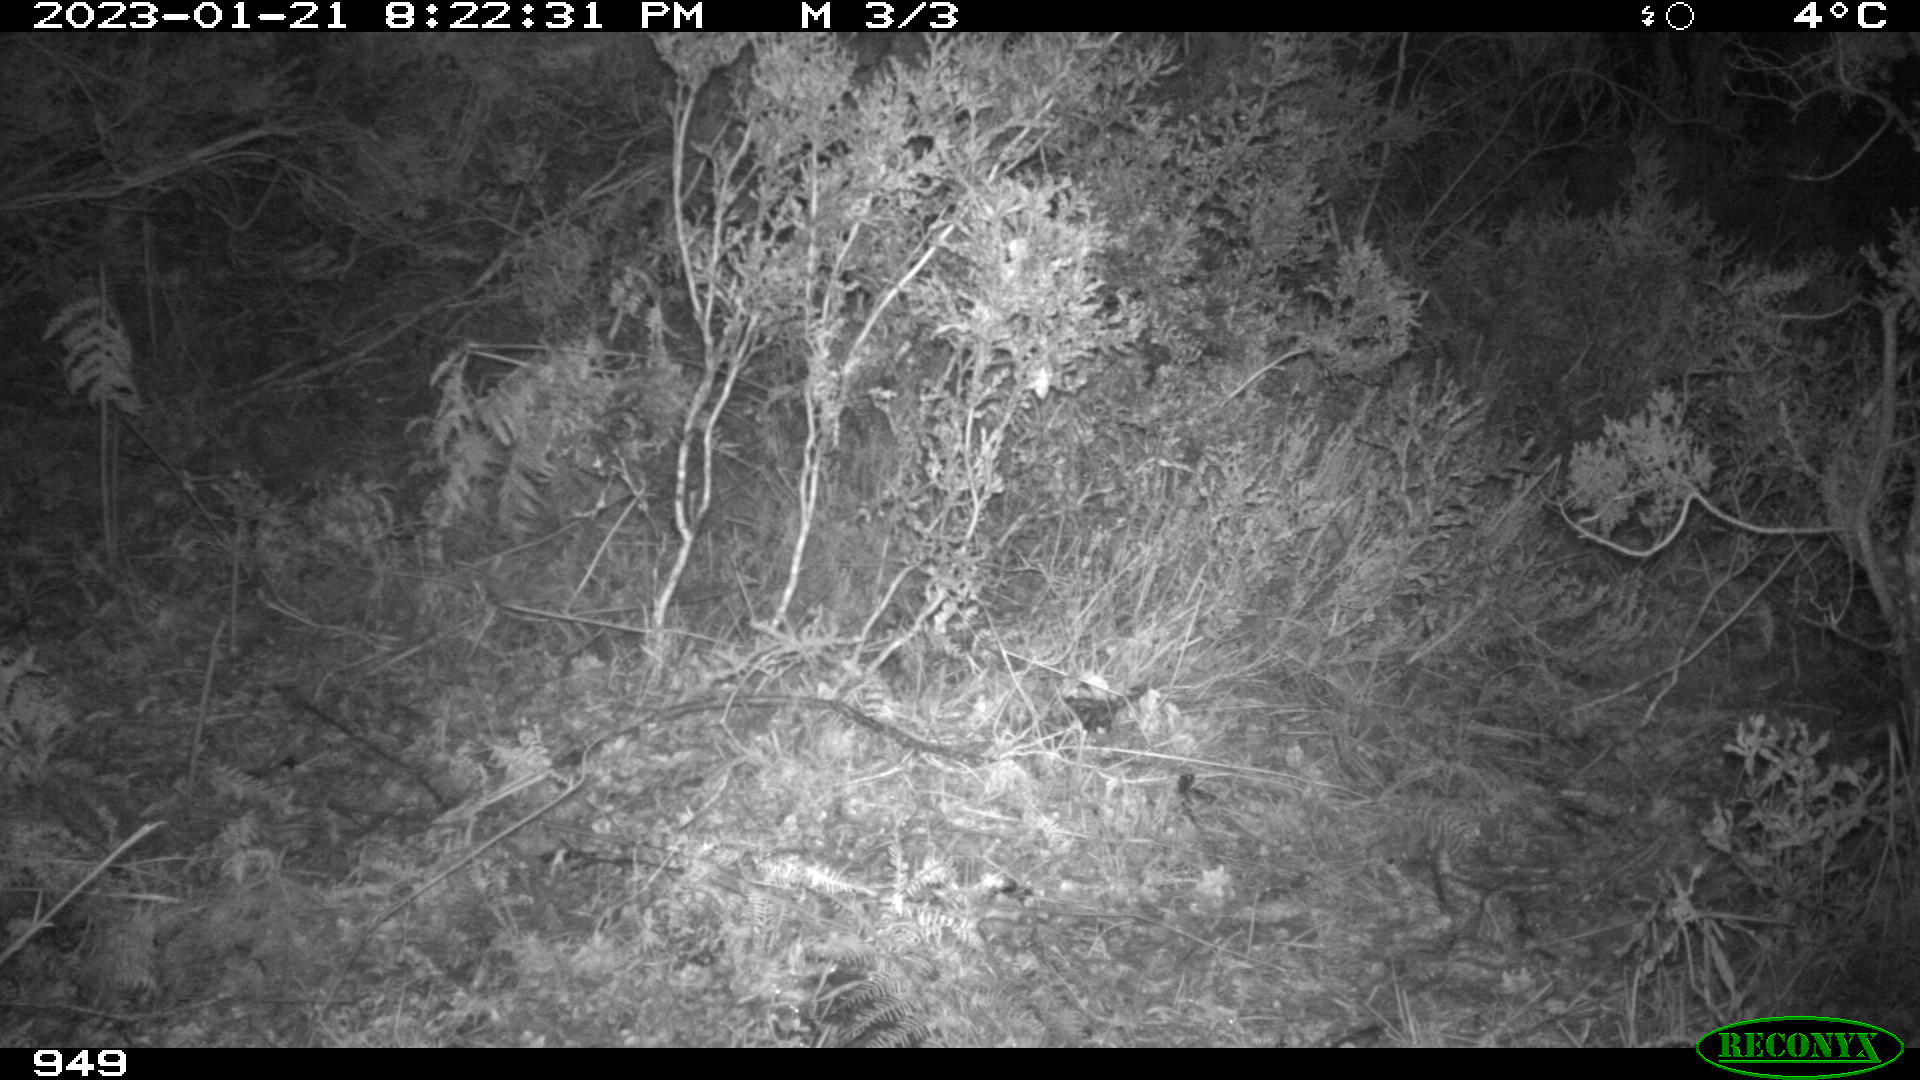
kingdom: Animalia
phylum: Chordata
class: Mammalia
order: Artiodactyla
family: Suidae
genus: Sus
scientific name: Sus scrofa
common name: Wild boar
